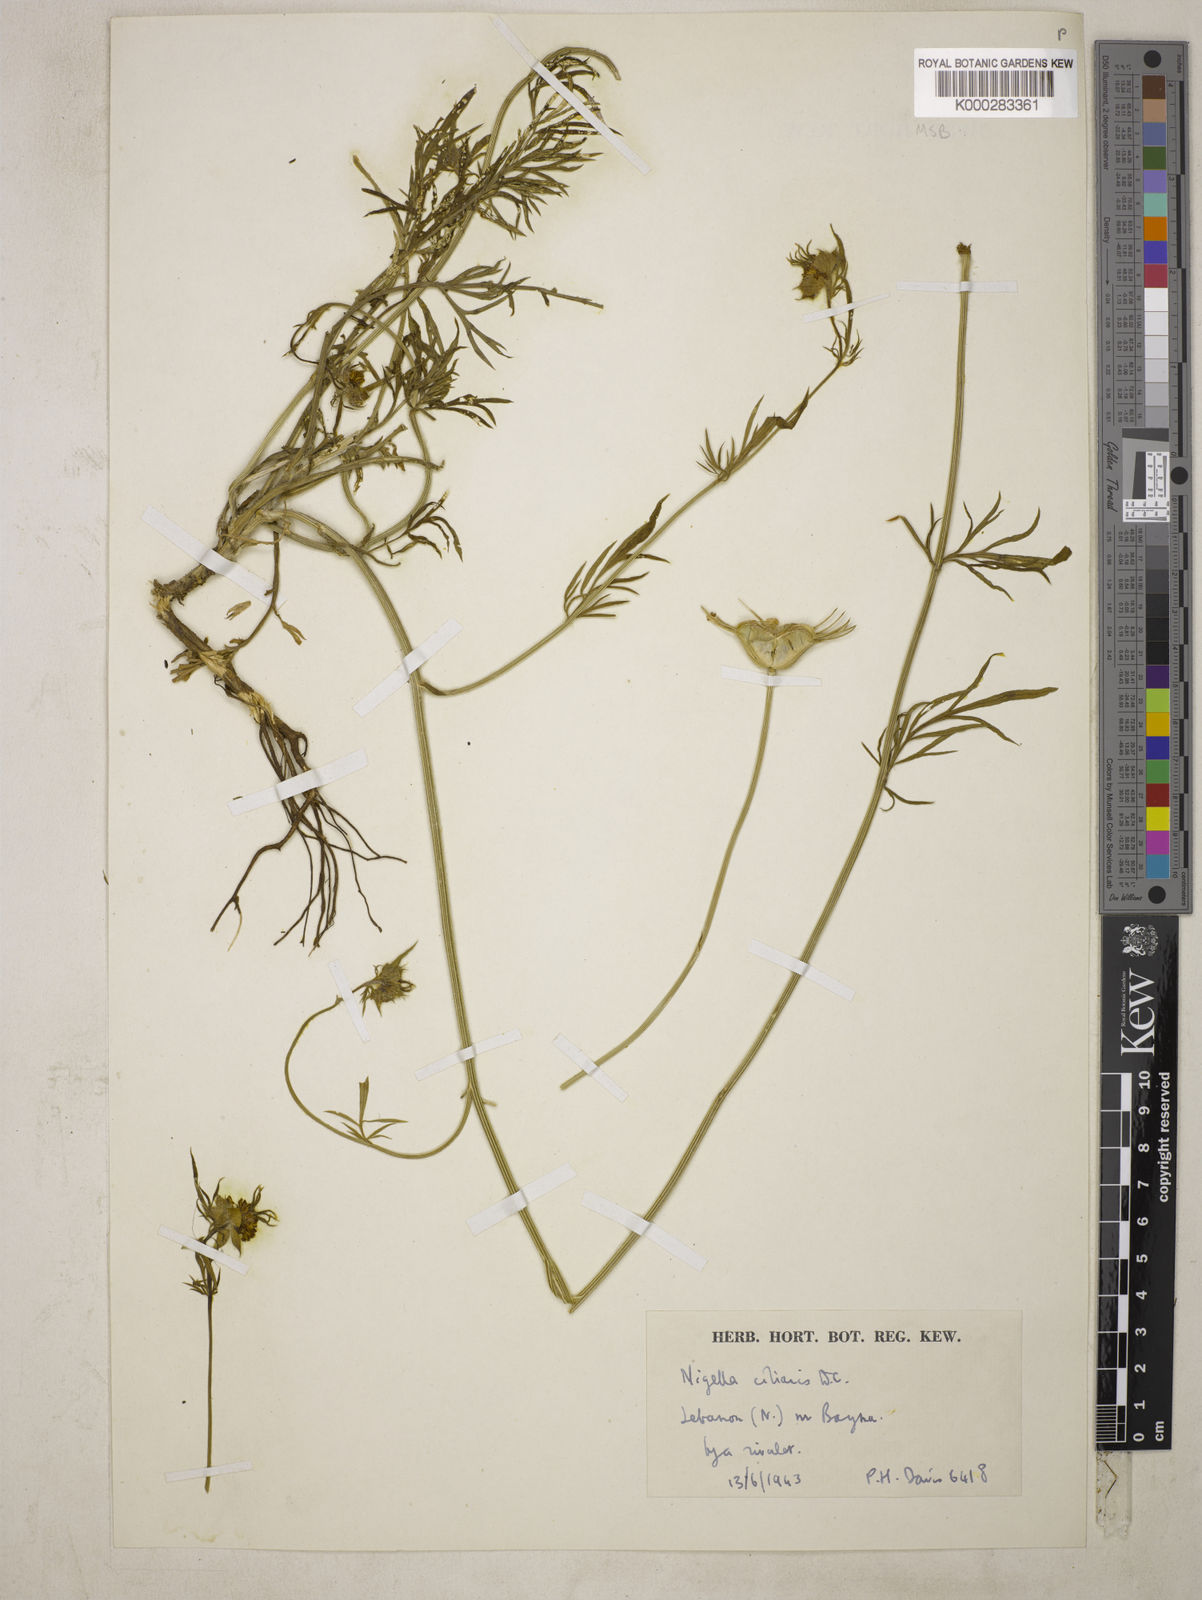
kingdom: Plantae
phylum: Tracheophyta
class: Magnoliopsida
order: Ranunculales
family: Ranunculaceae
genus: Nigella
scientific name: Nigella ciliaris
